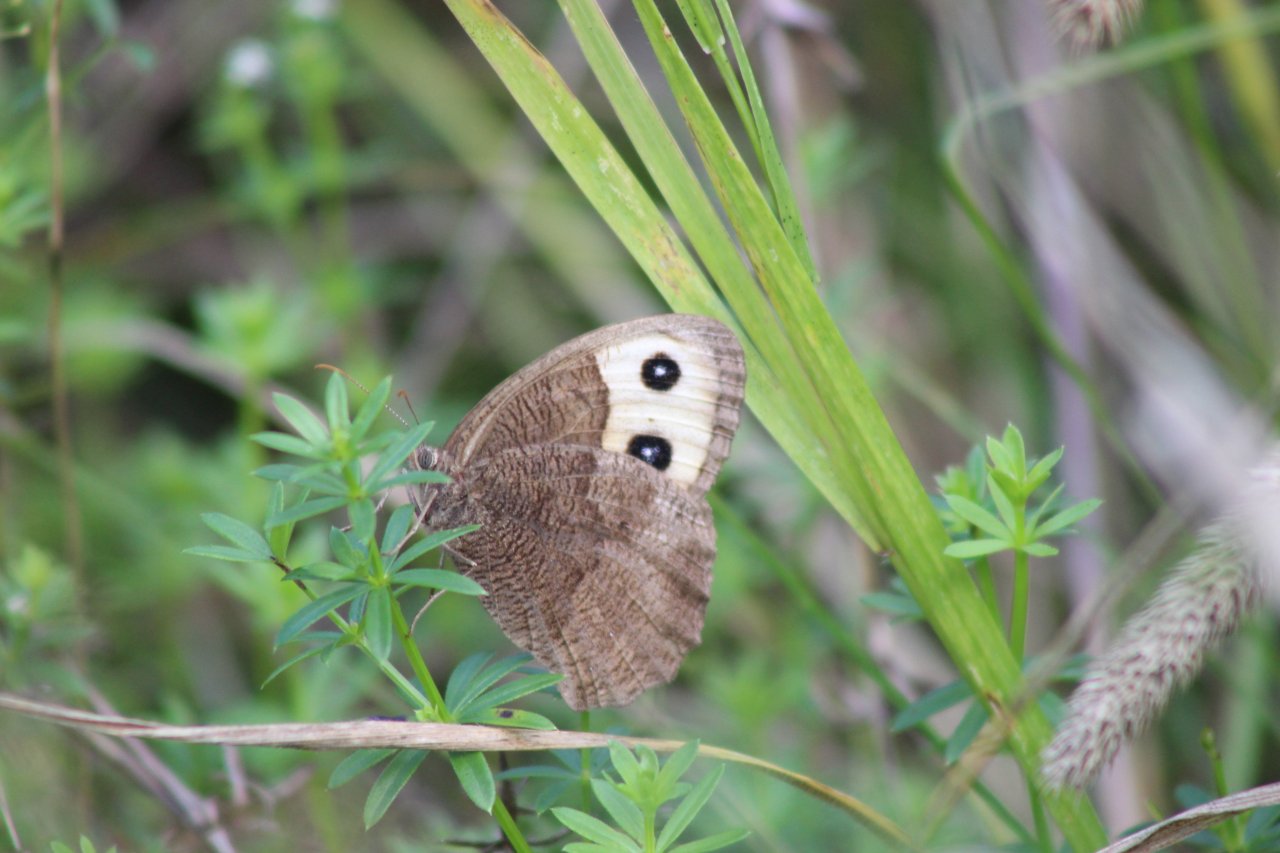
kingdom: Animalia
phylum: Arthropoda
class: Insecta
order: Lepidoptera
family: Nymphalidae
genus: Cercyonis
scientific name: Cercyonis pegala
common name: Common Wood-Nymph
